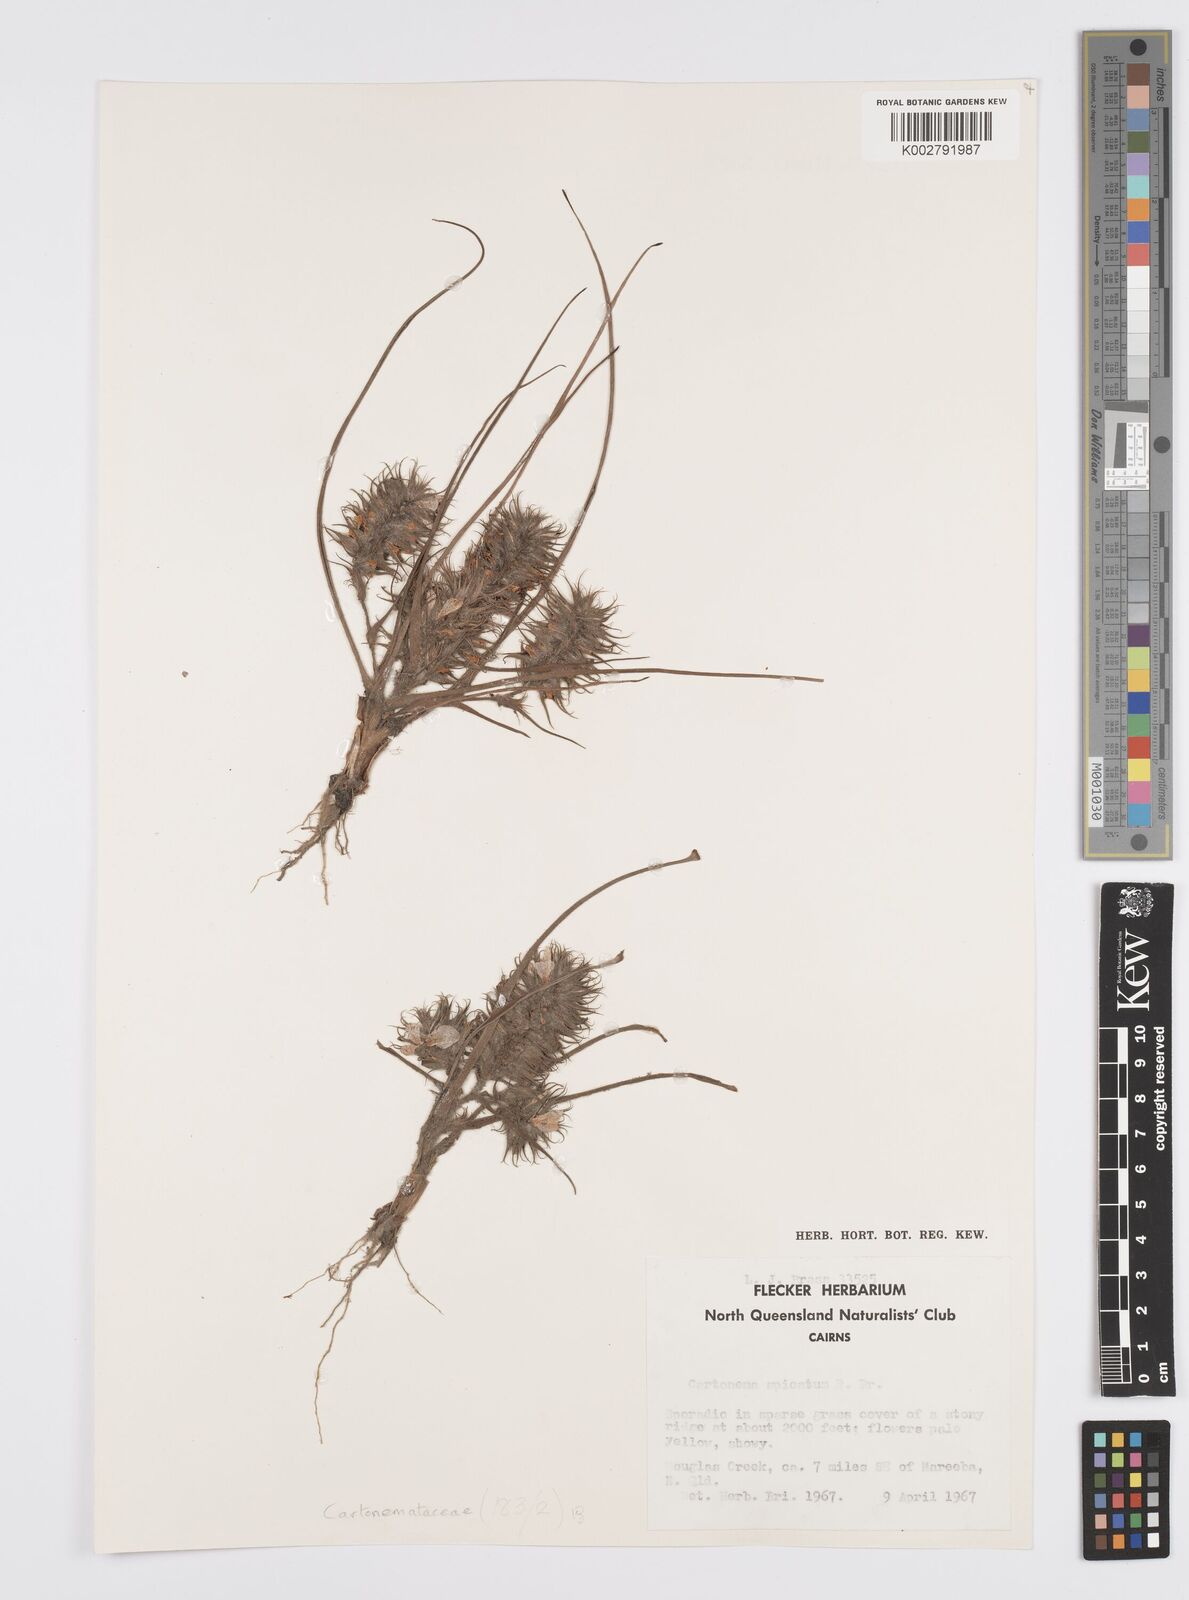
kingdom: Plantae
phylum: Tracheophyta
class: Liliopsida
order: Commelinales
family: Commelinaceae
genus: Cartonema
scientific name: Cartonema spicatum
